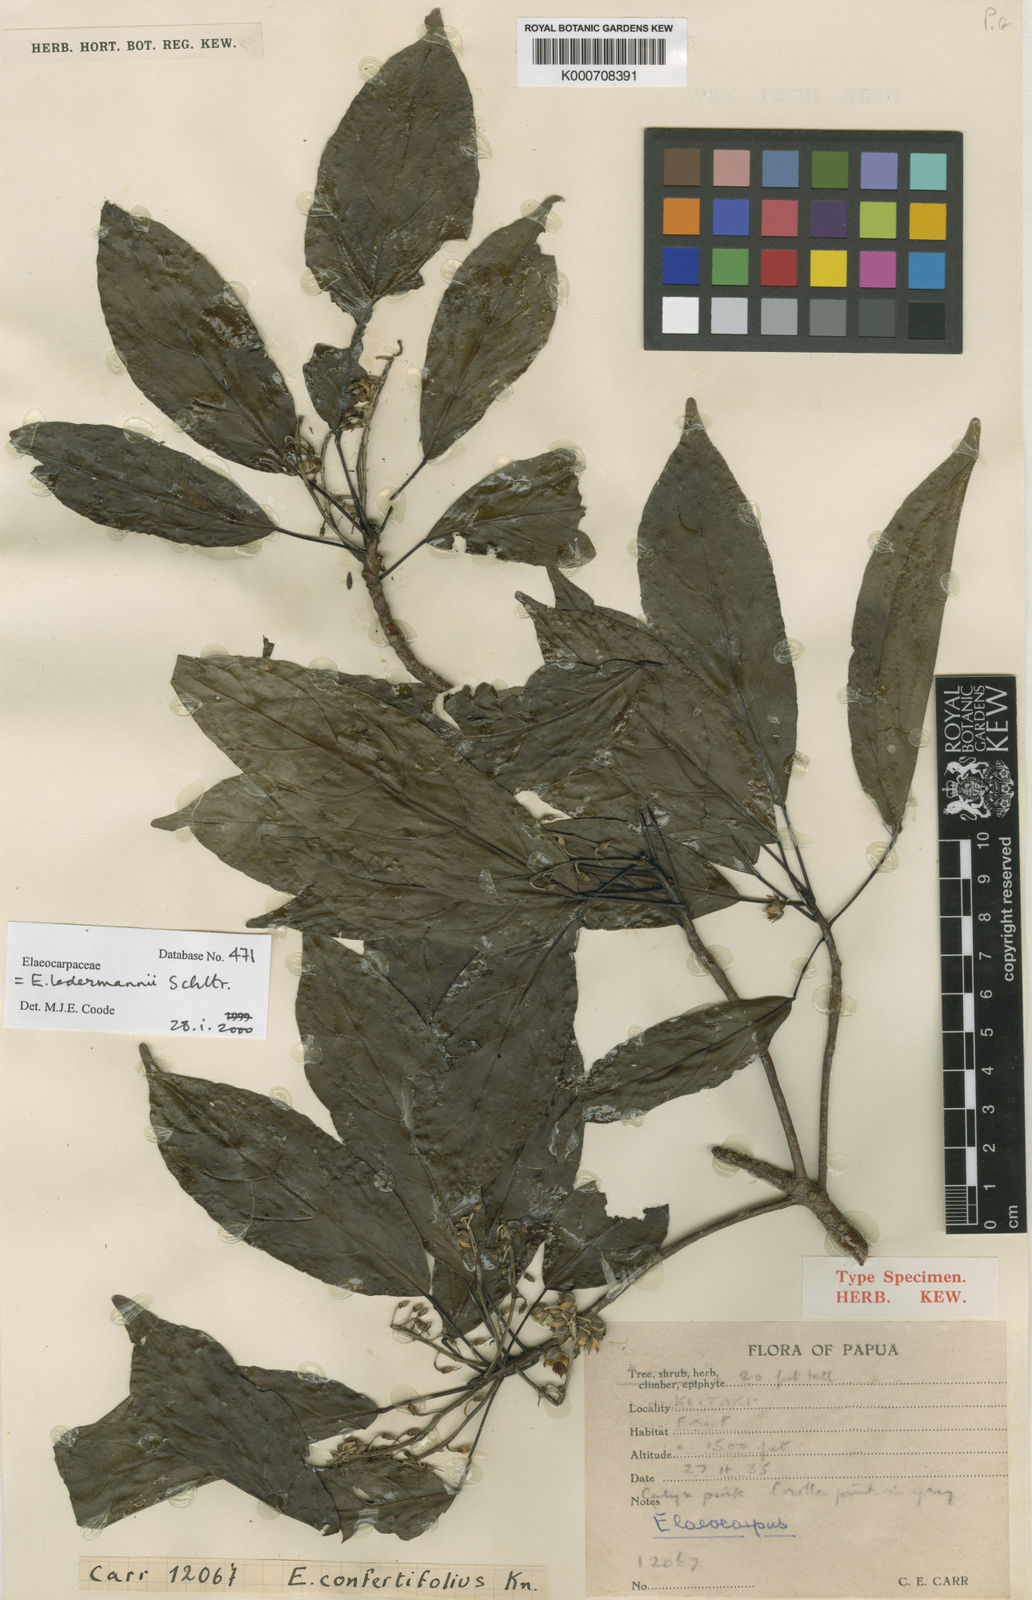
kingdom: Plantae
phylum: Tracheophyta
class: Magnoliopsida
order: Oxalidales
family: Elaeocarpaceae
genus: Elaeocarpus
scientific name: Elaeocarpus ledermannii
